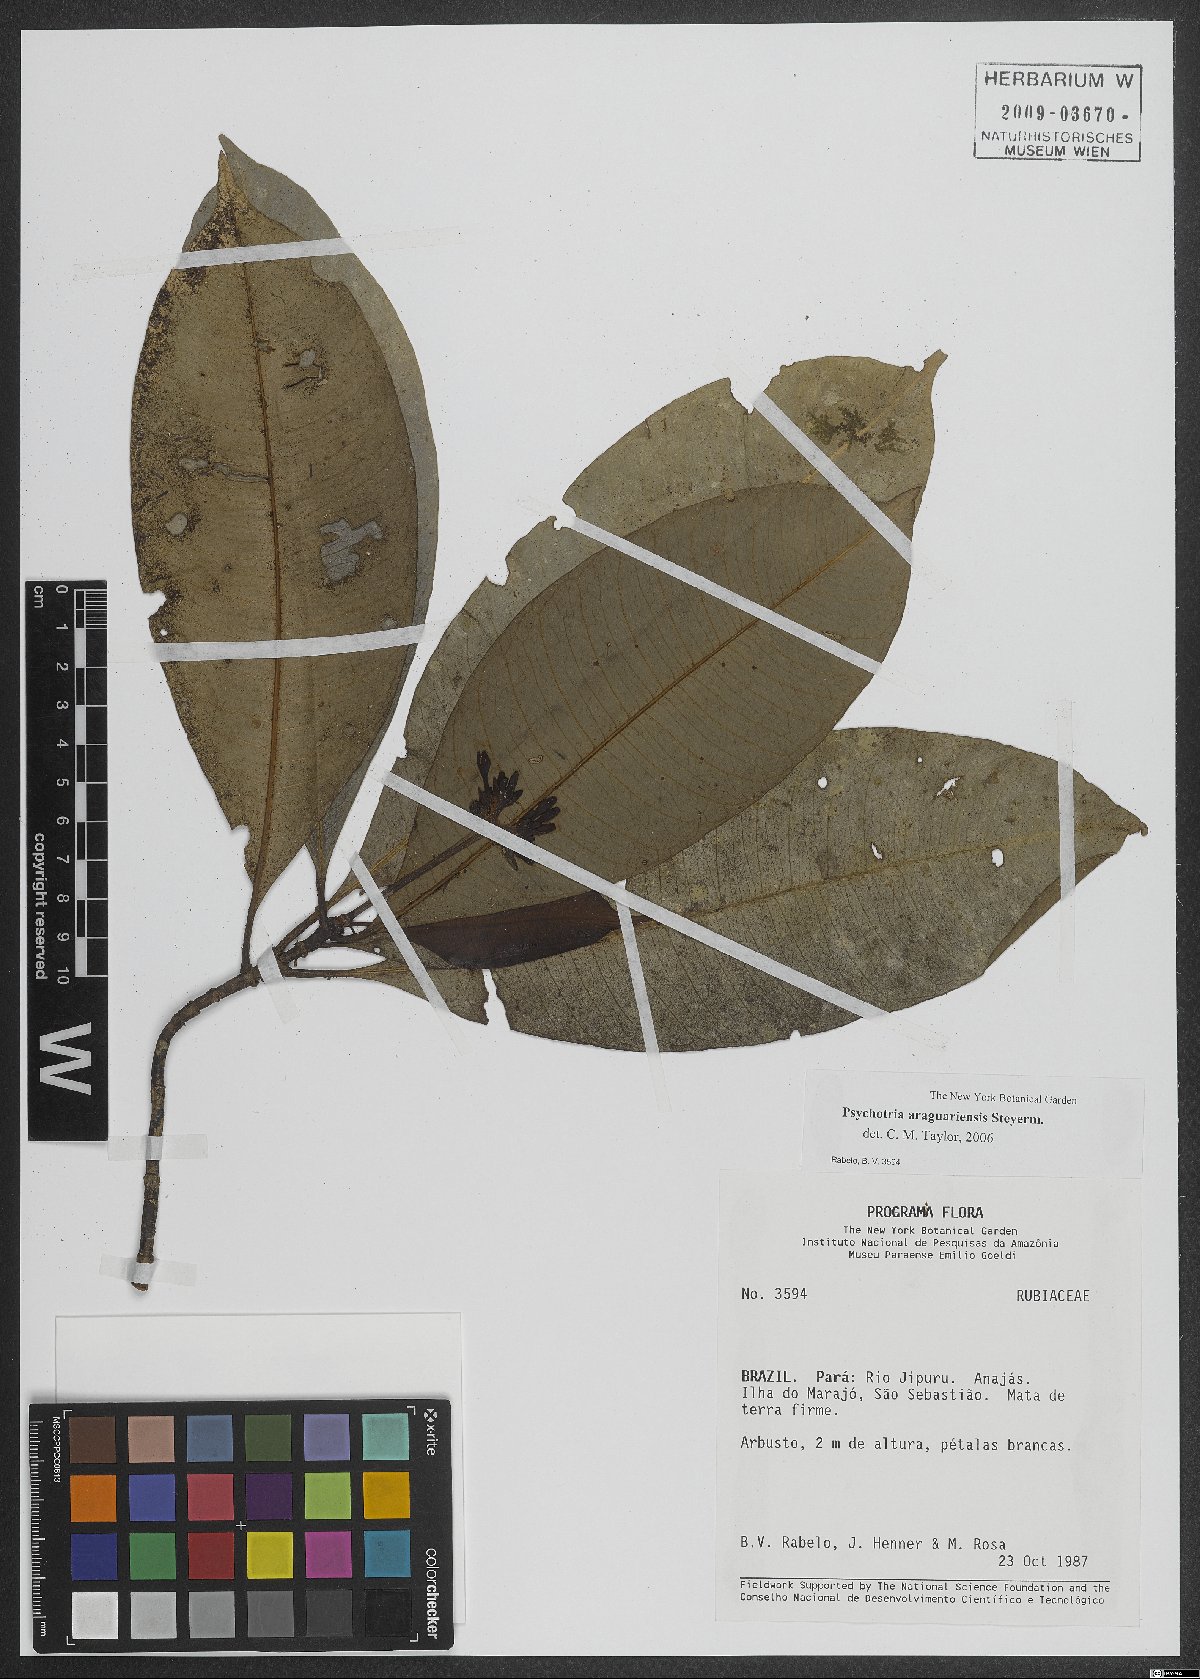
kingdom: Plantae
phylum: Tracheophyta
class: Magnoliopsida
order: Gentianales
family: Rubiaceae
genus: Carapichea
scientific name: Carapichea araguariensis
